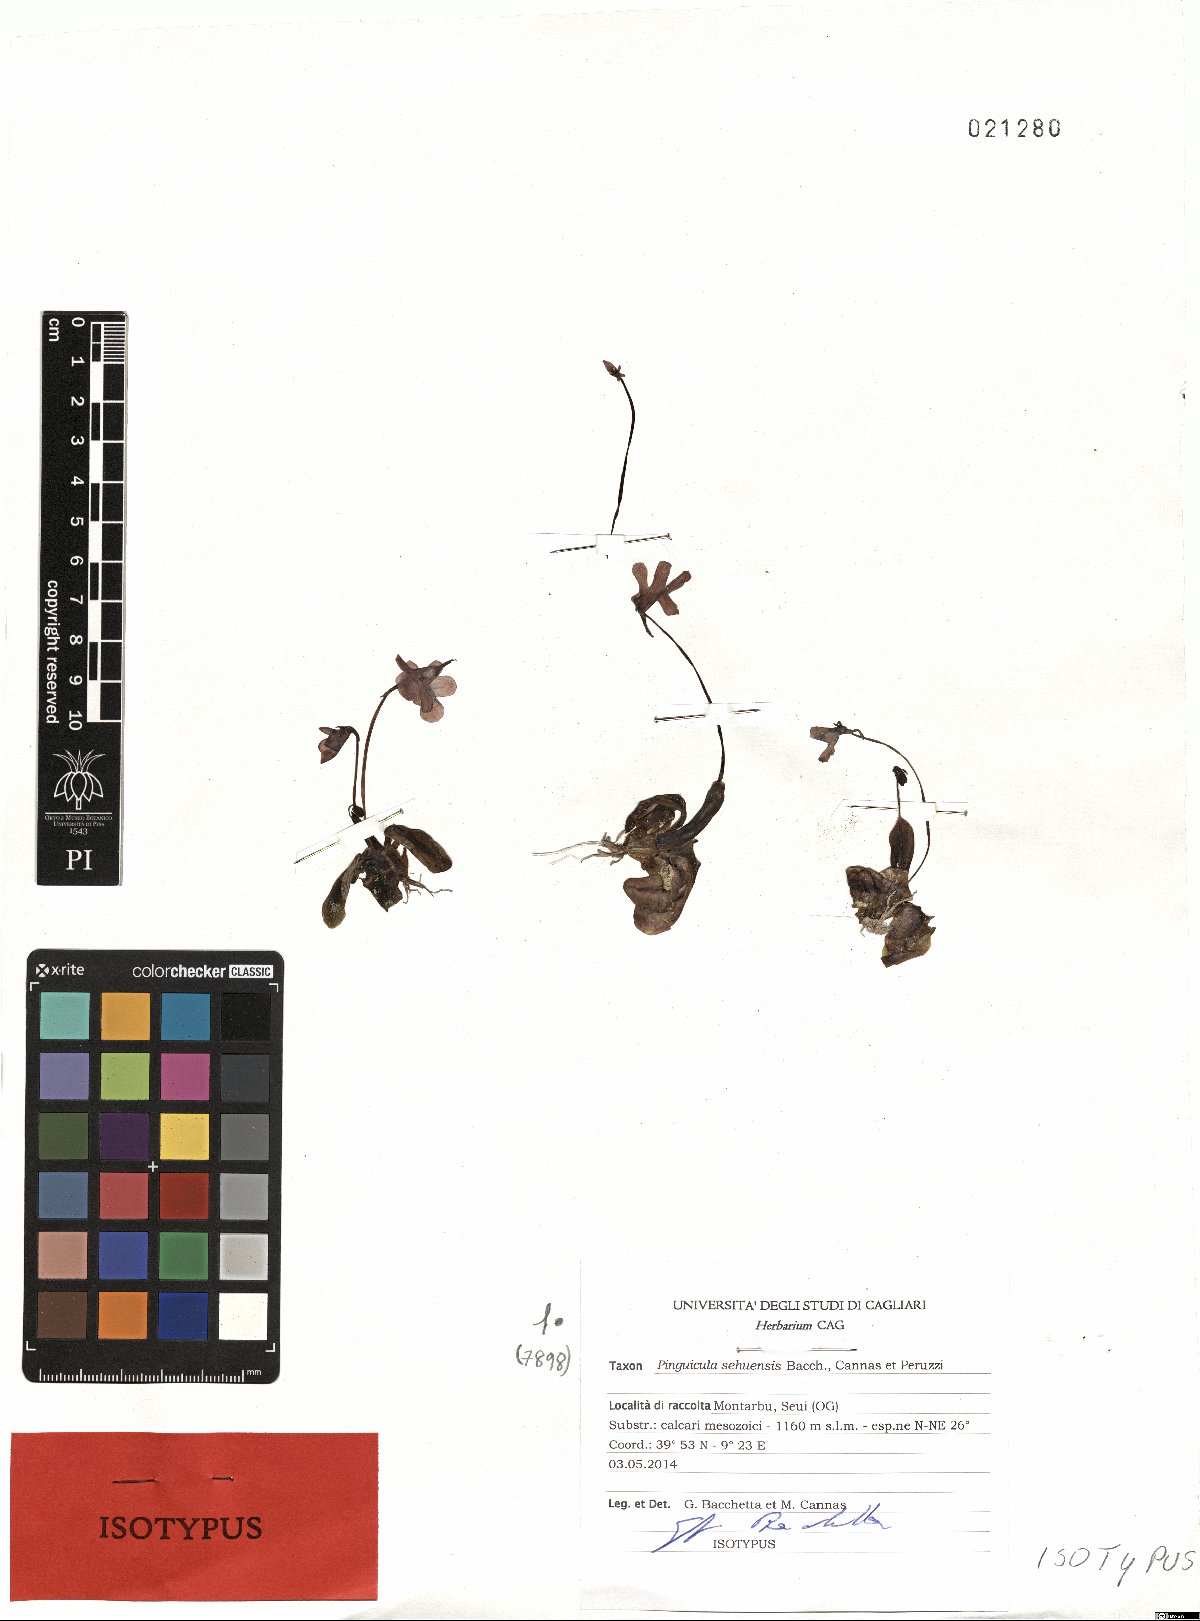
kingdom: Plantae
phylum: Tracheophyta
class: Magnoliopsida
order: Lamiales
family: Lentibulariaceae
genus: Pinguicula
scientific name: Pinguicula sehuensis
